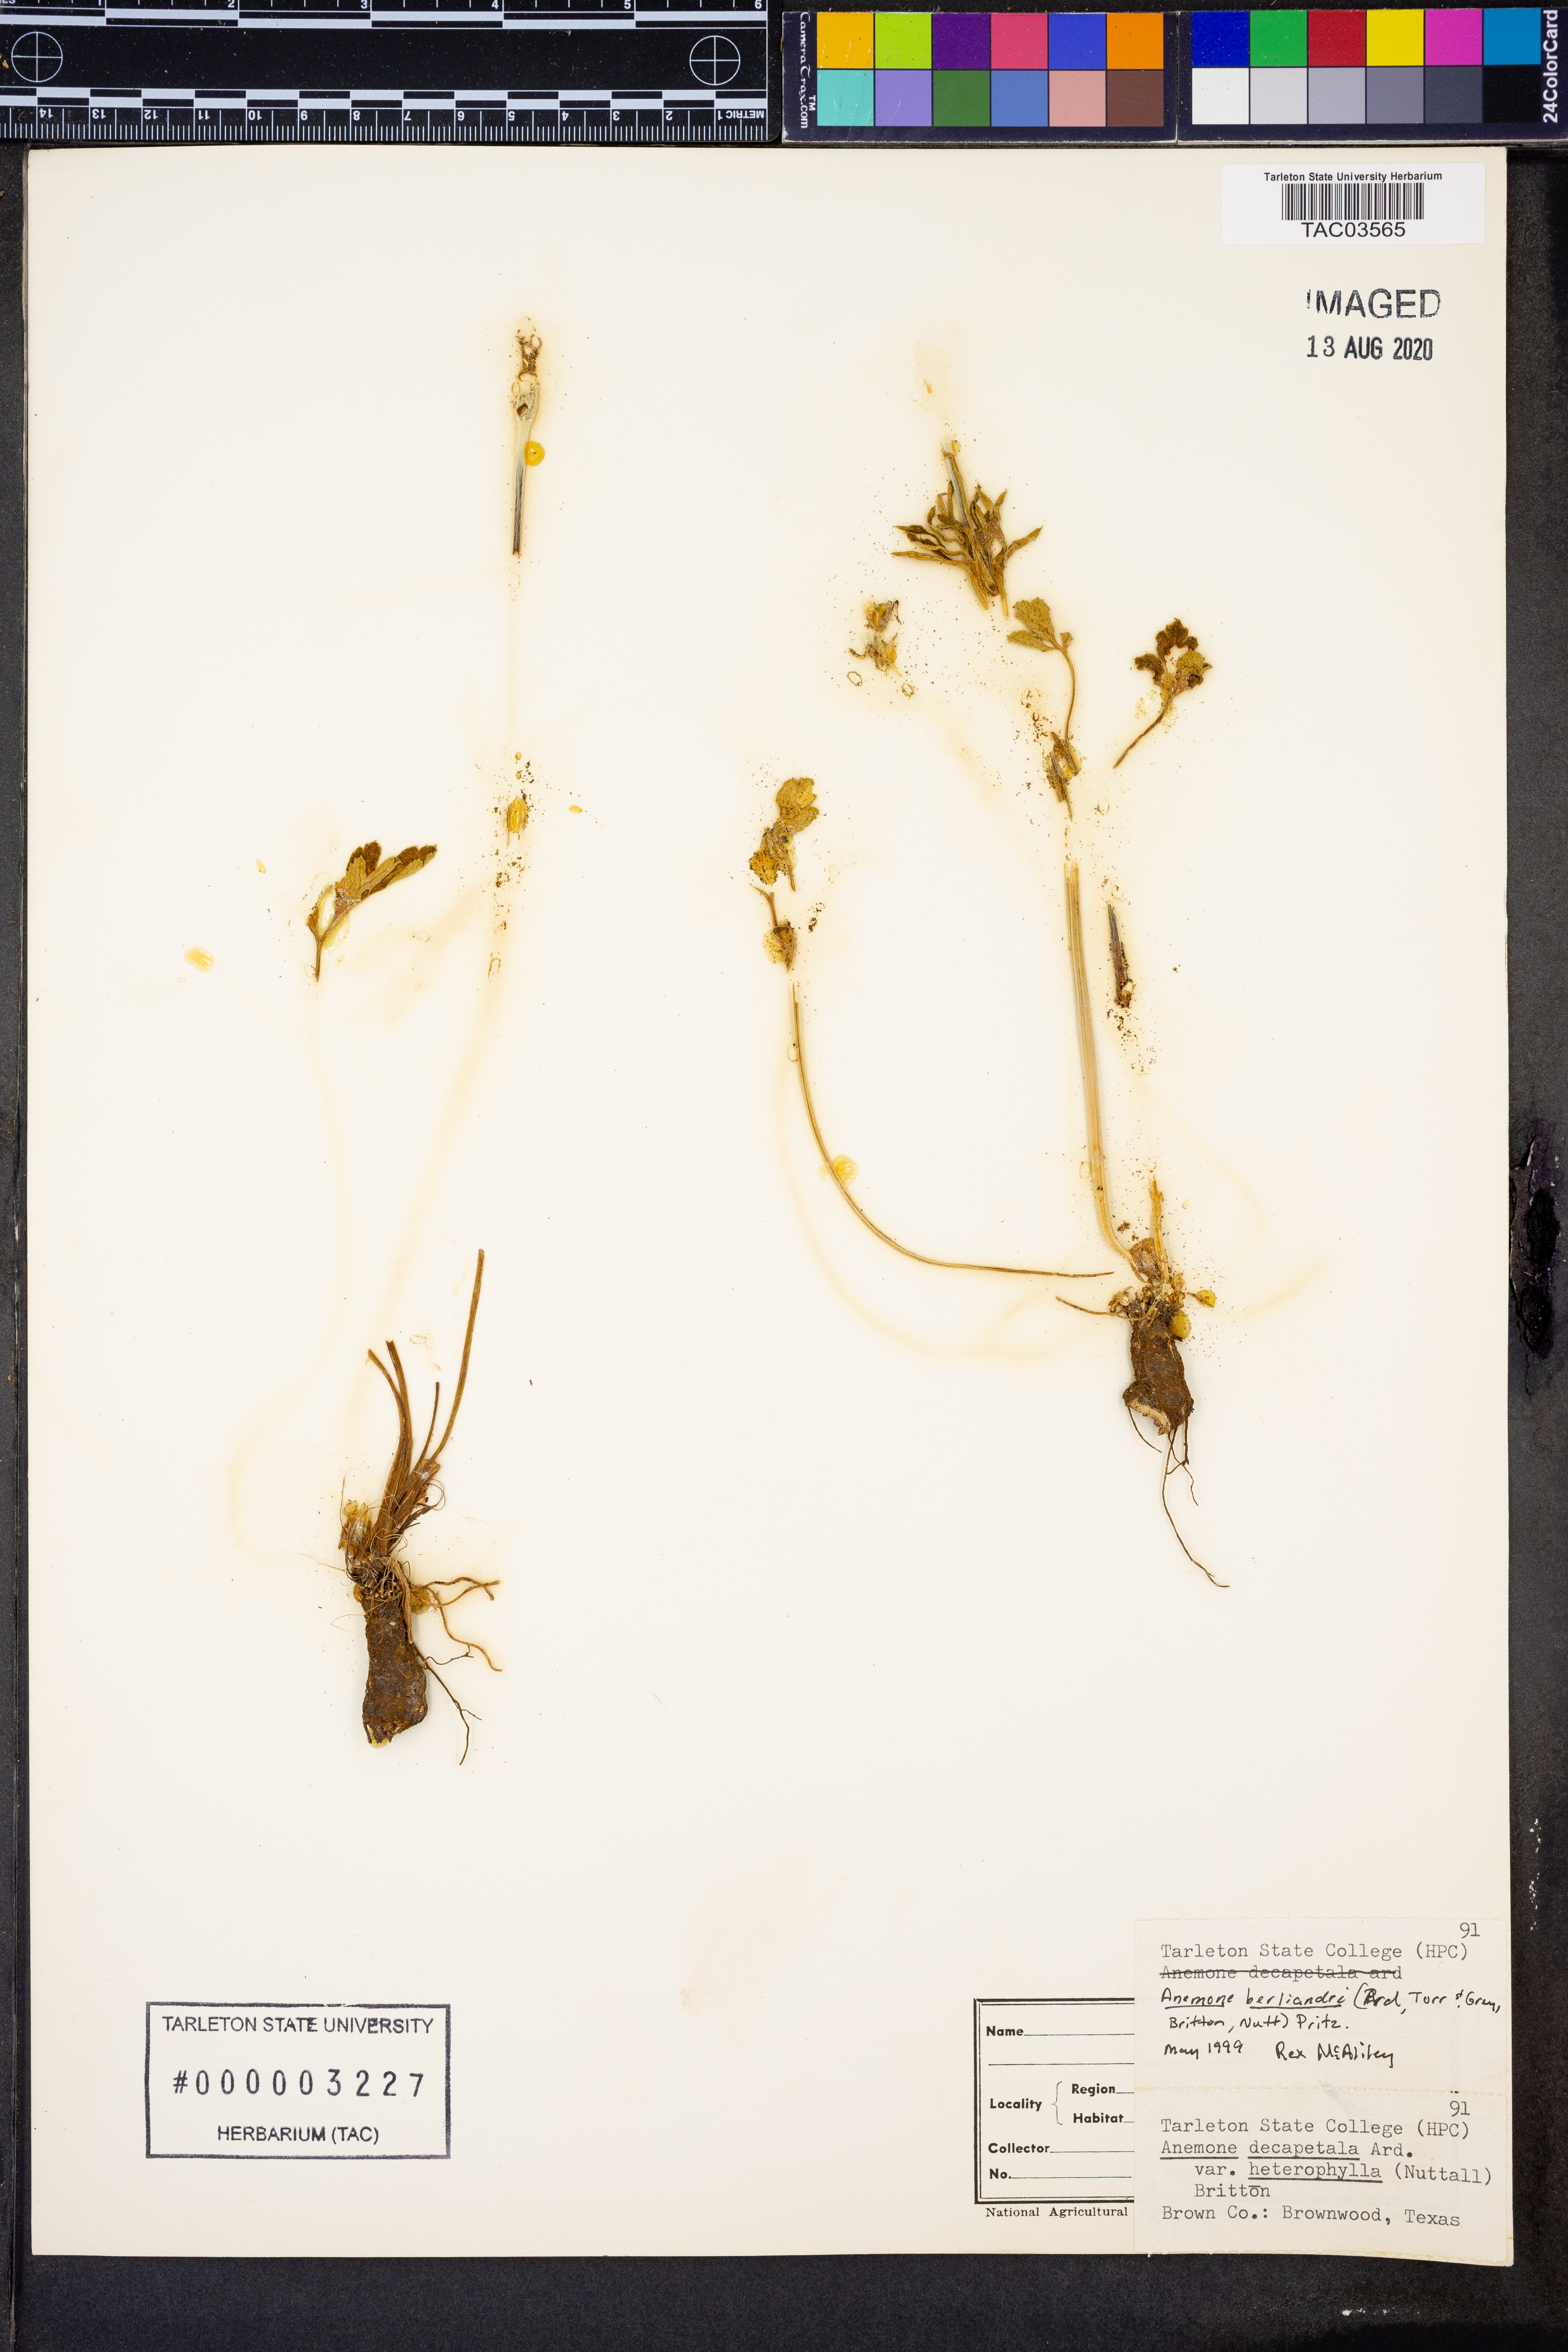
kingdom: Plantae
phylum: Tracheophyta
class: Magnoliopsida
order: Ranunculales
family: Ranunculaceae
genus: Anemone
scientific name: Anemone berlandieri
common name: Ten-petal anemone
